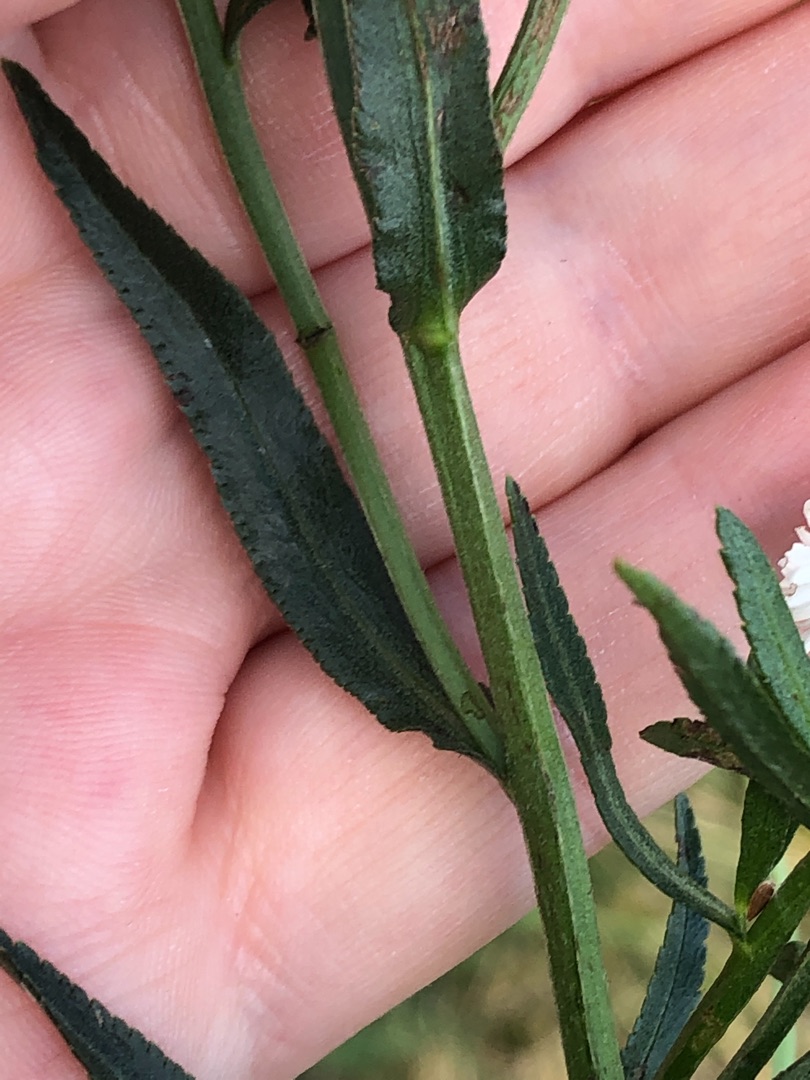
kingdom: Plantae
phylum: Tracheophyta
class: Magnoliopsida
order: Asterales
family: Asteraceae
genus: Achillea
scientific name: Achillea ptarmica
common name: Nyse-røllike
